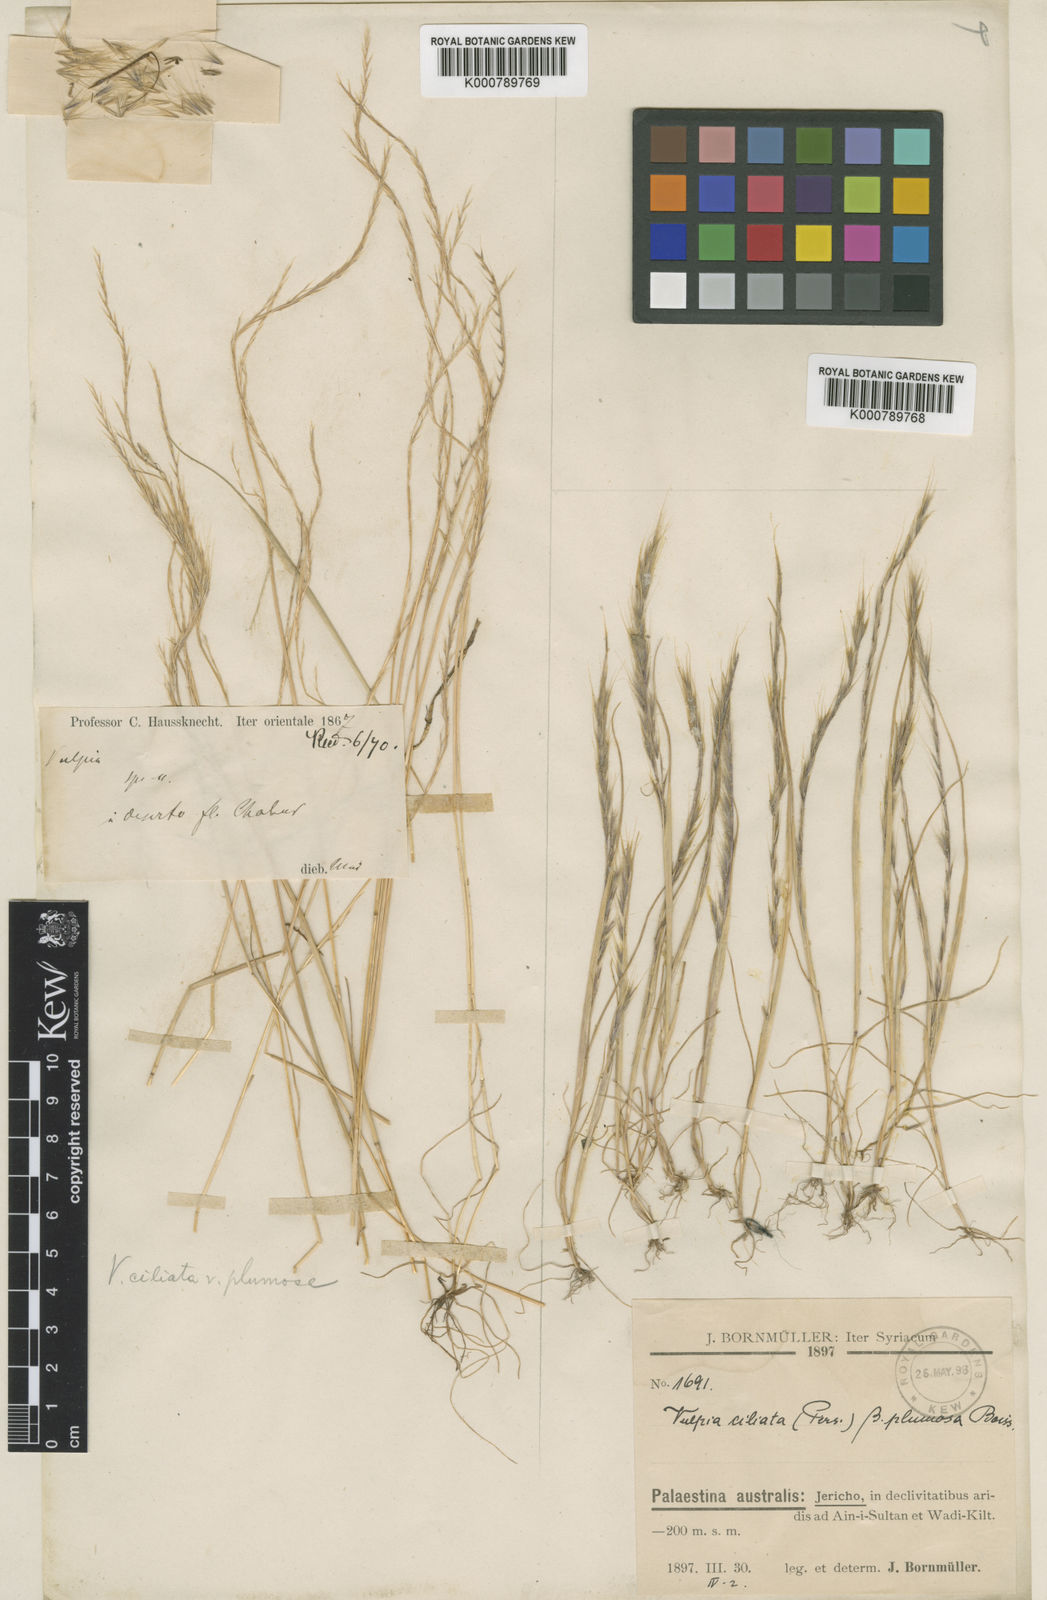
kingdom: Plantae
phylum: Tracheophyta
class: Liliopsida
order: Poales
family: Poaceae
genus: Festuca
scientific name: Festuca ambigua
